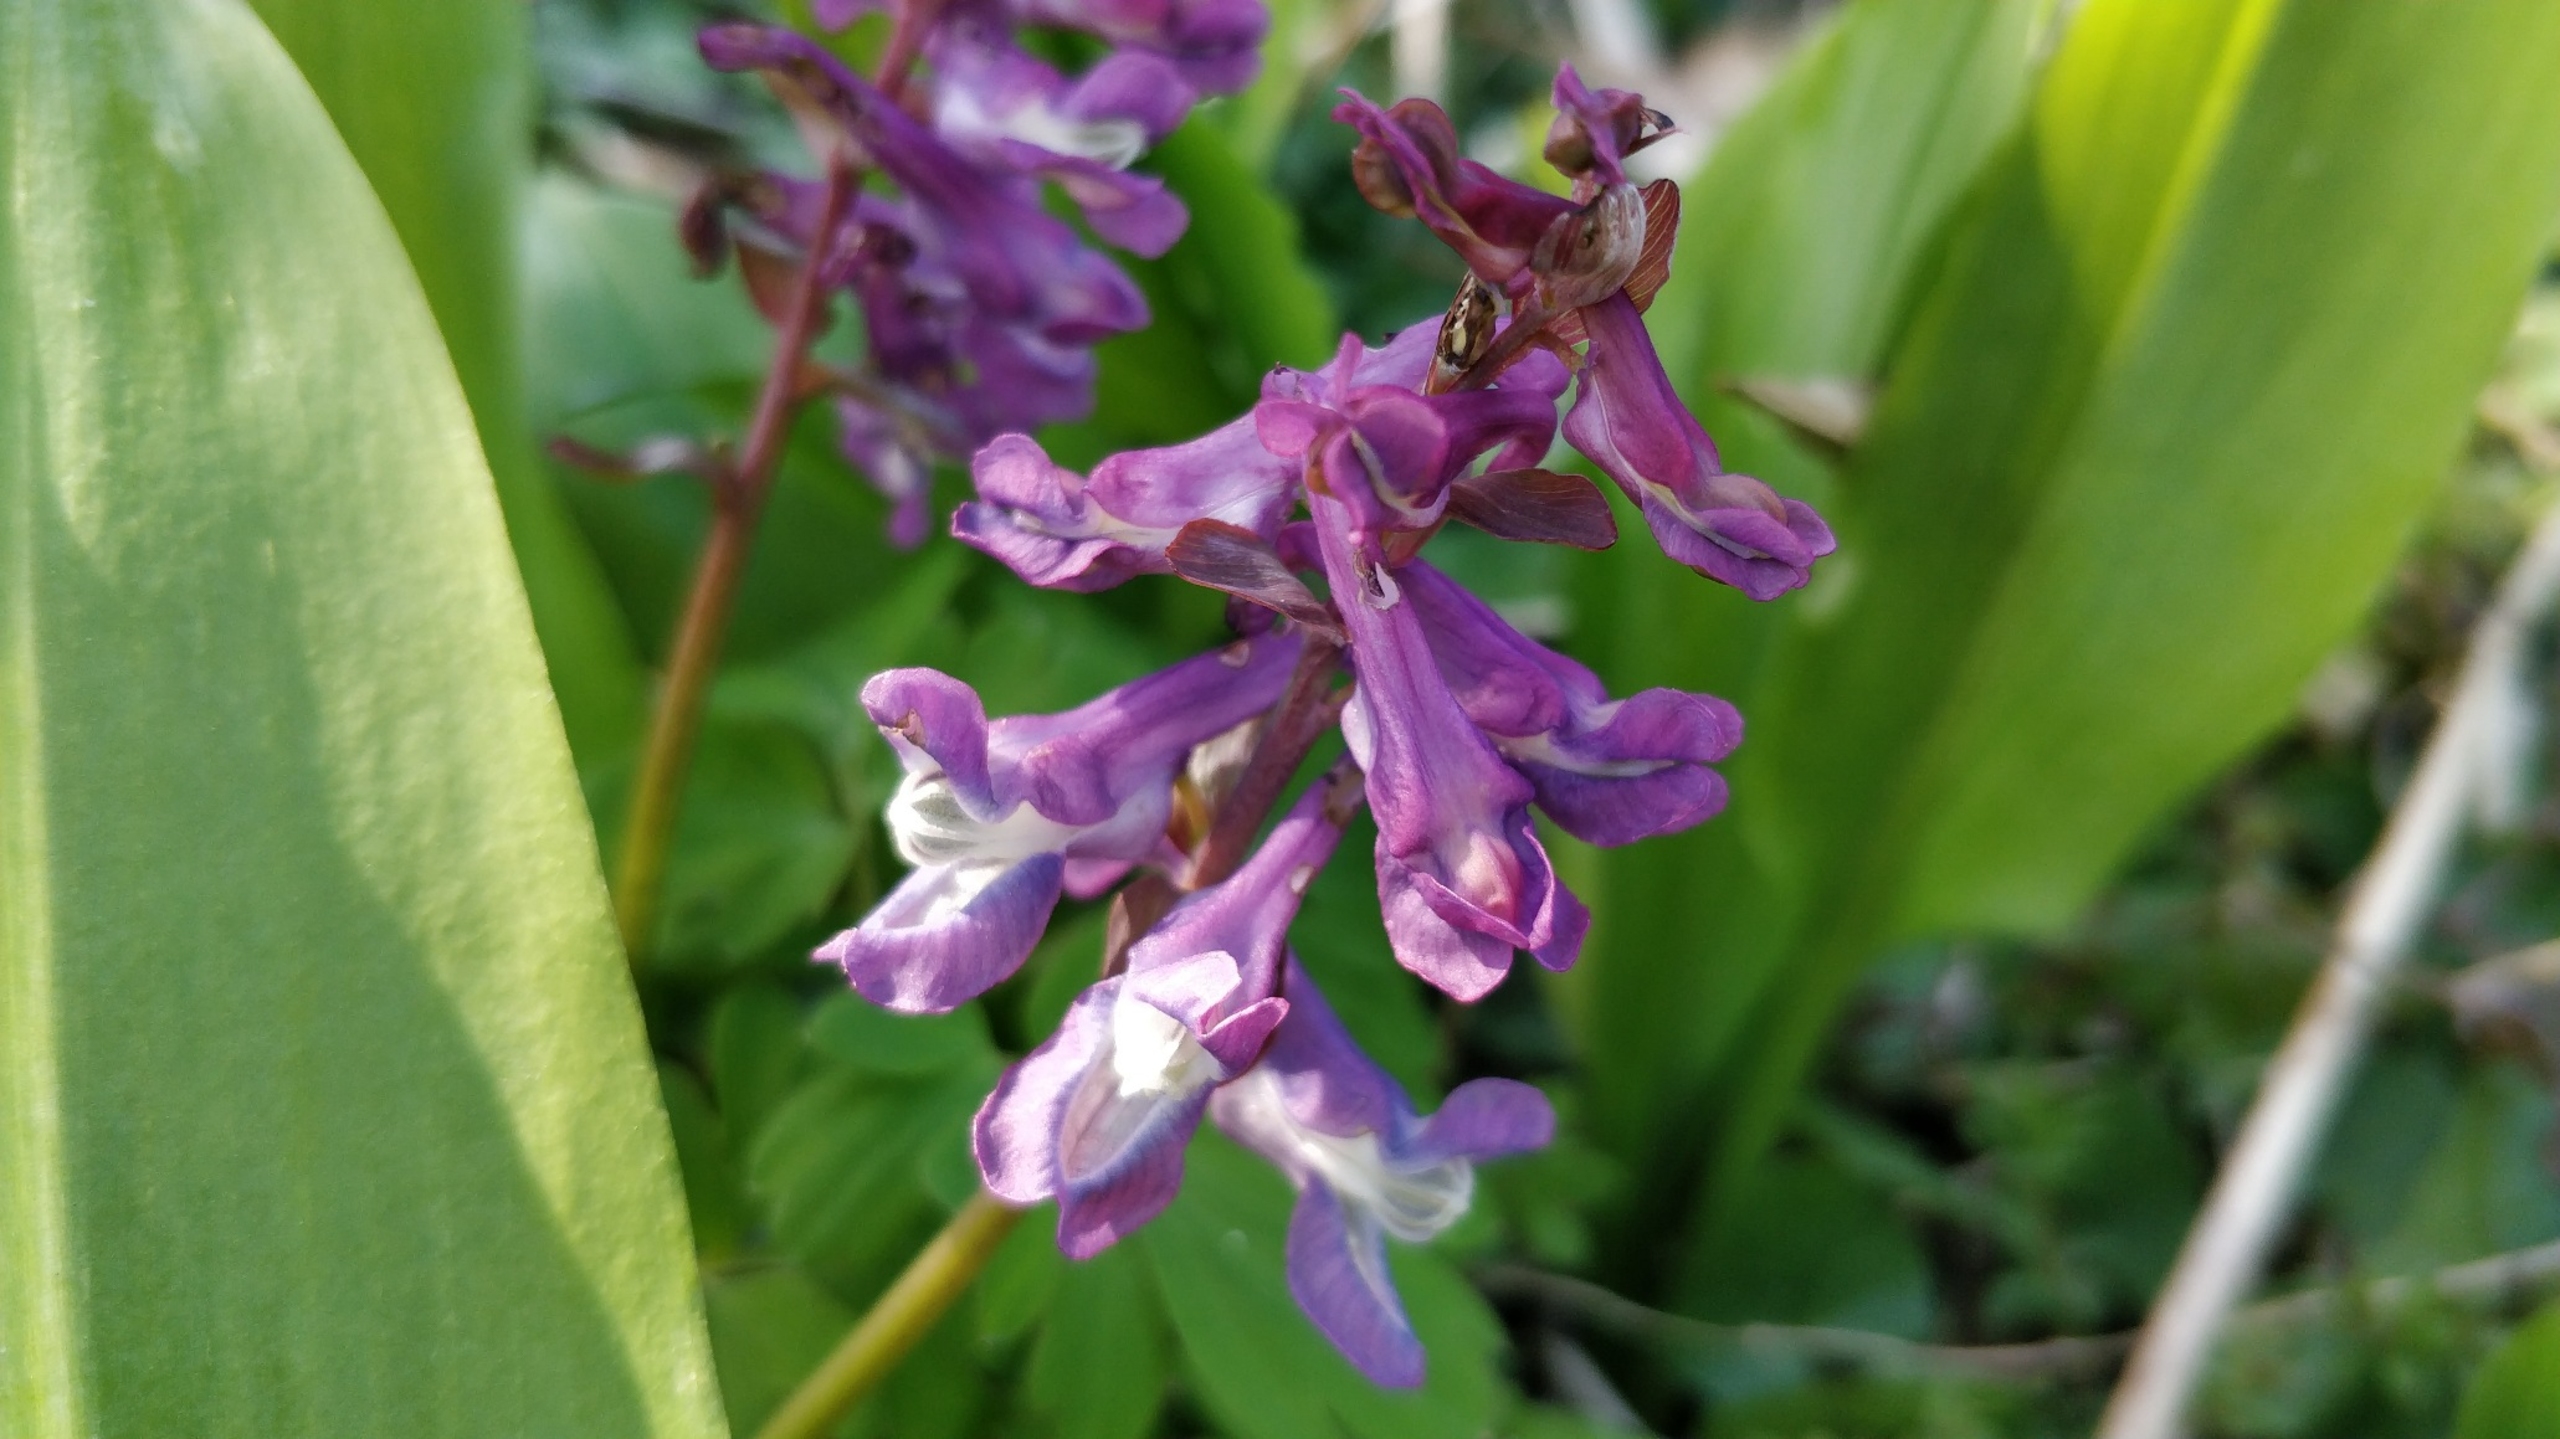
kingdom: Plantae
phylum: Tracheophyta
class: Magnoliopsida
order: Ranunculales
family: Papaveraceae
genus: Corydalis
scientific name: Corydalis cava
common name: Hulrodet lærkespore
